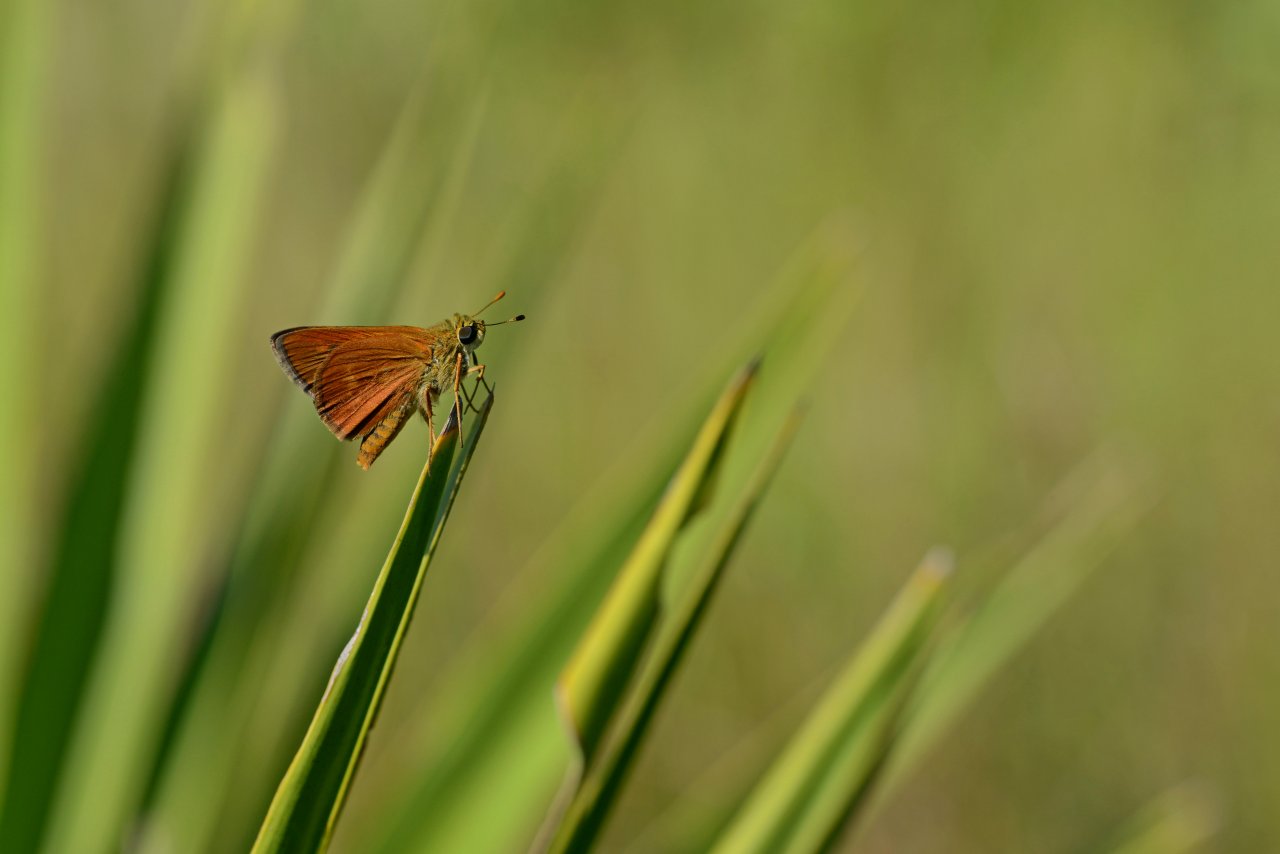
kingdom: Animalia
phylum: Arthropoda
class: Insecta
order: Lepidoptera
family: Hesperiidae
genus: Wallengrenia
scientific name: Wallengrenia otho
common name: Southern Broken-Dash
